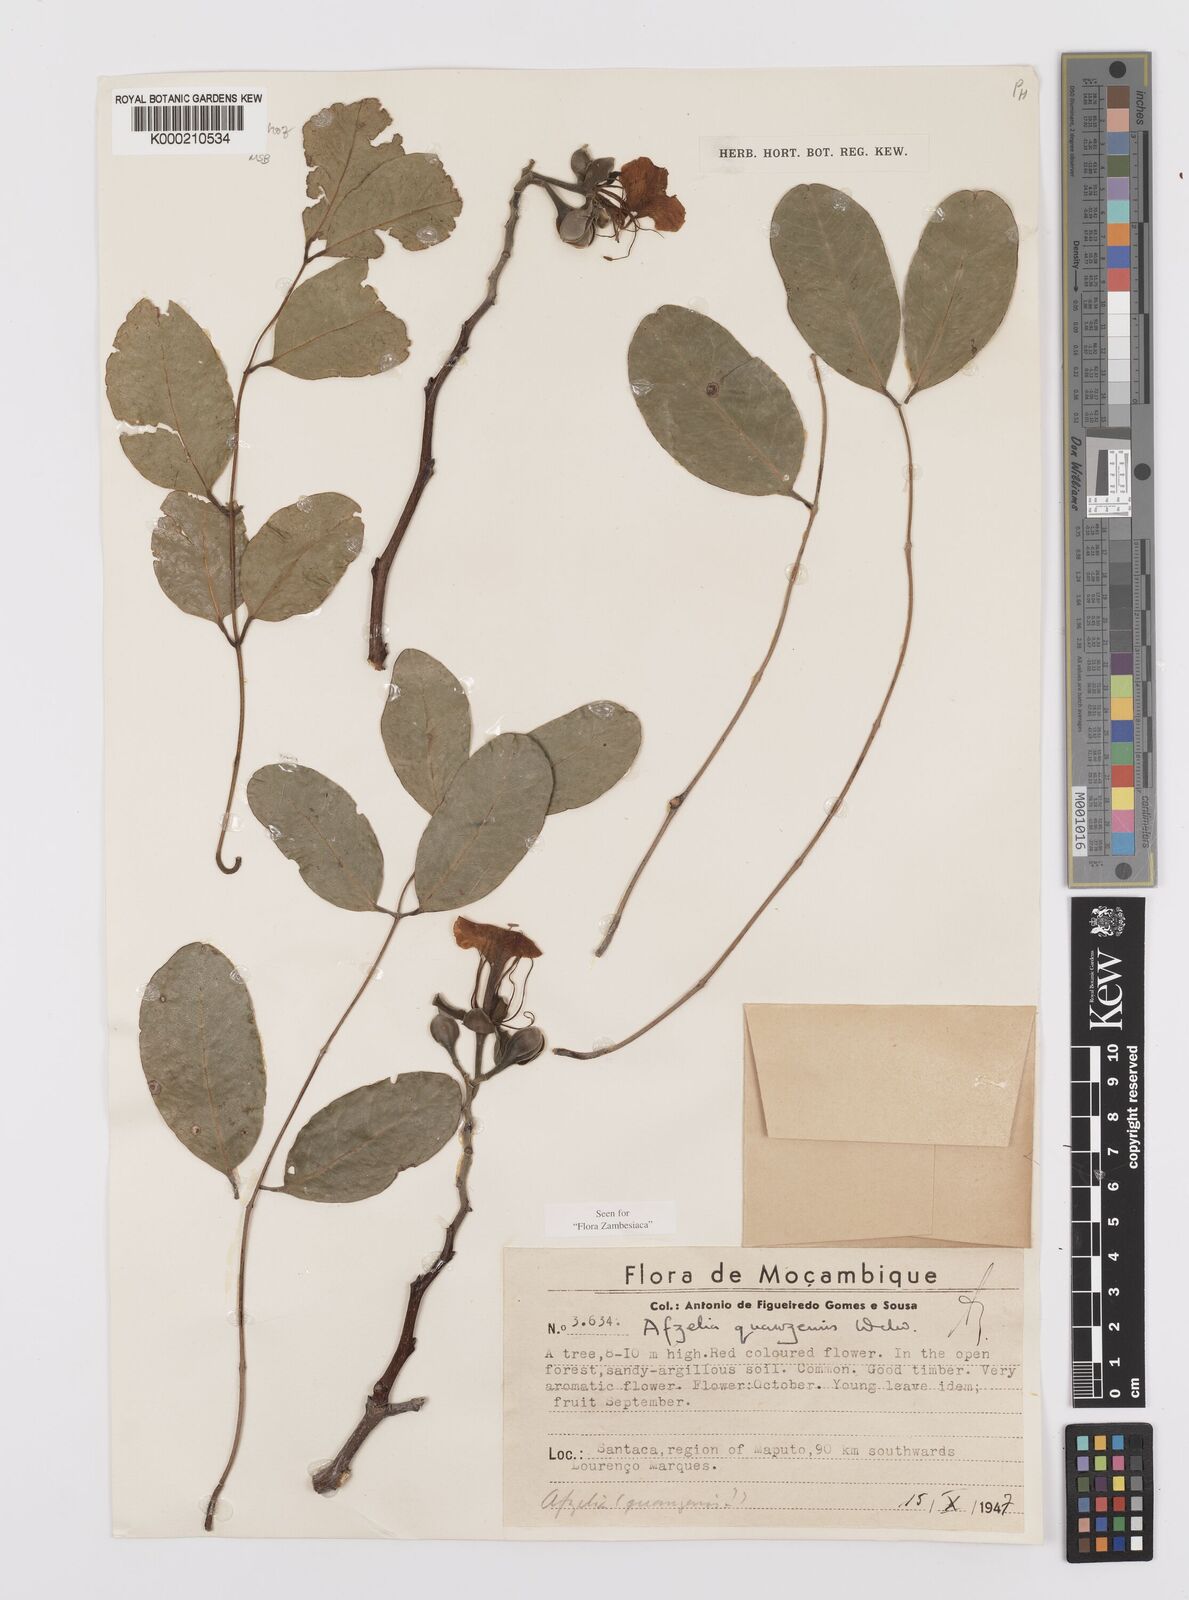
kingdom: Plantae
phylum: Tracheophyta
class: Magnoliopsida
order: Fabales
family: Fabaceae
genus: Afzelia
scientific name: Afzelia quanzensis
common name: Pod mahogany
